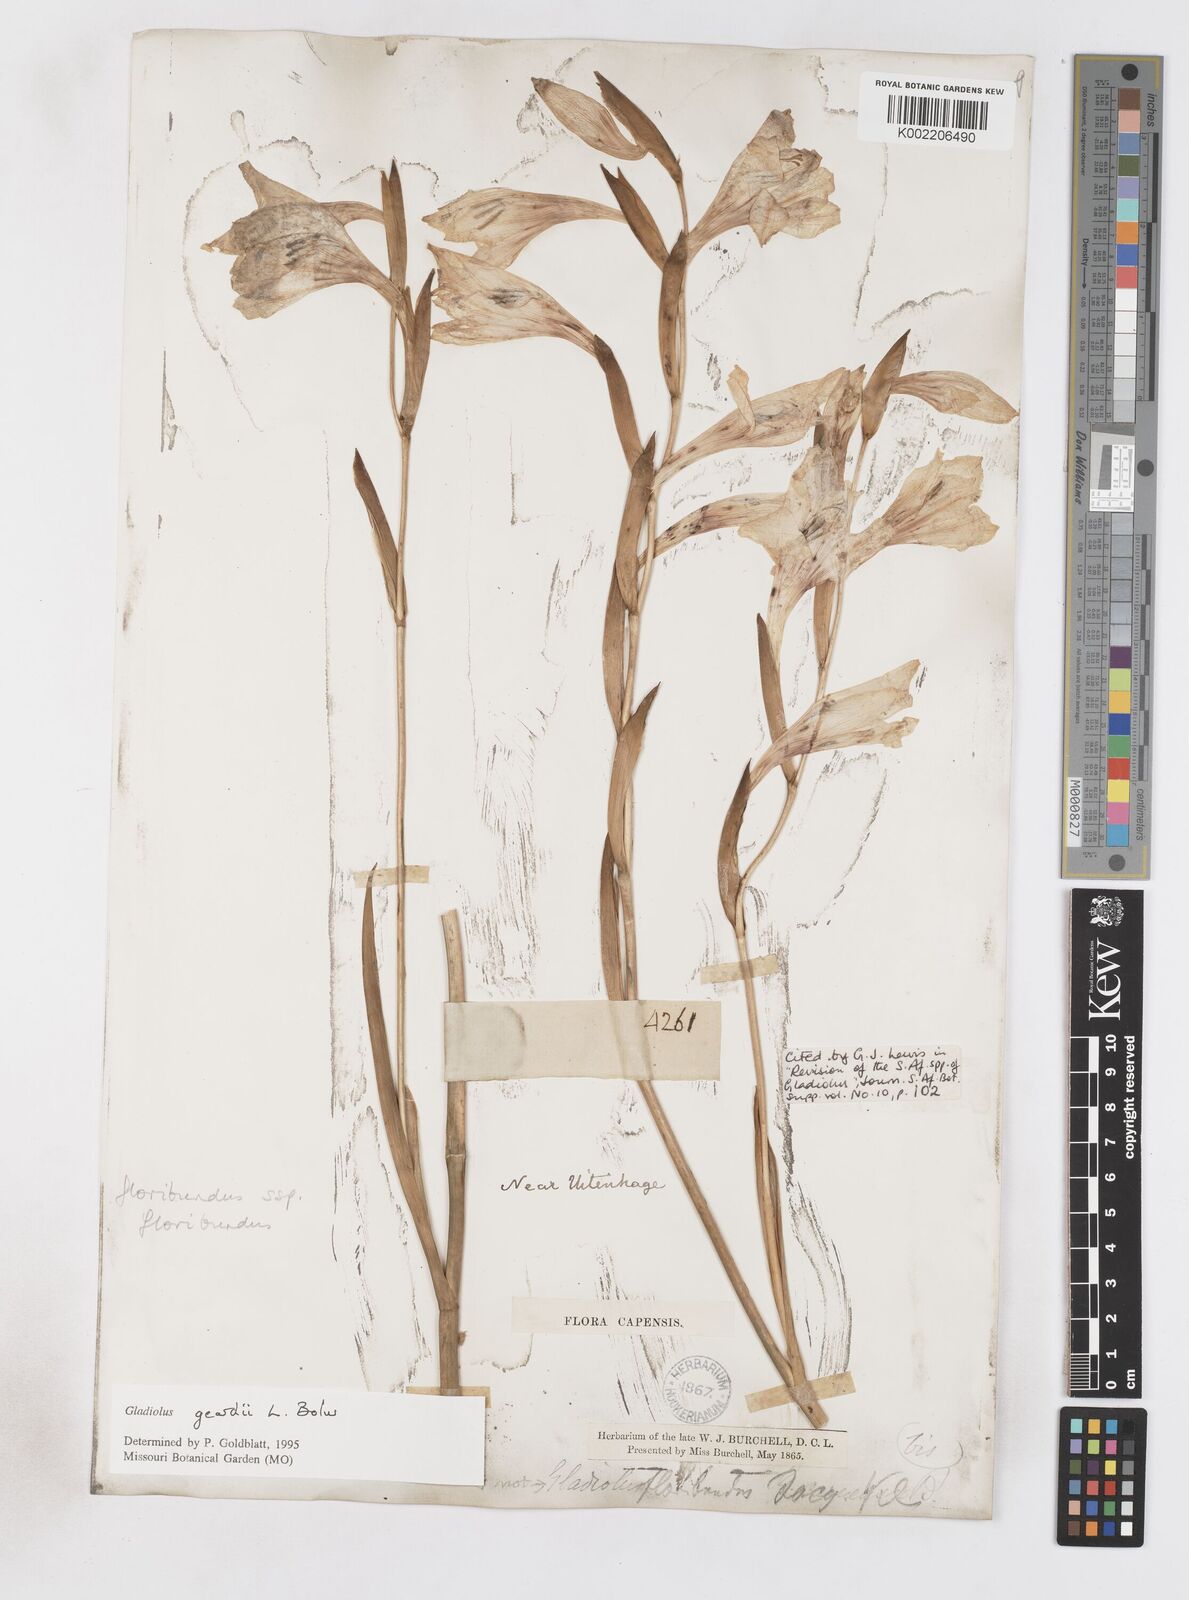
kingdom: Plantae
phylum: Tracheophyta
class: Liliopsida
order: Asparagales
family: Iridaceae
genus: Gladiolus
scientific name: Gladiolus geardii
